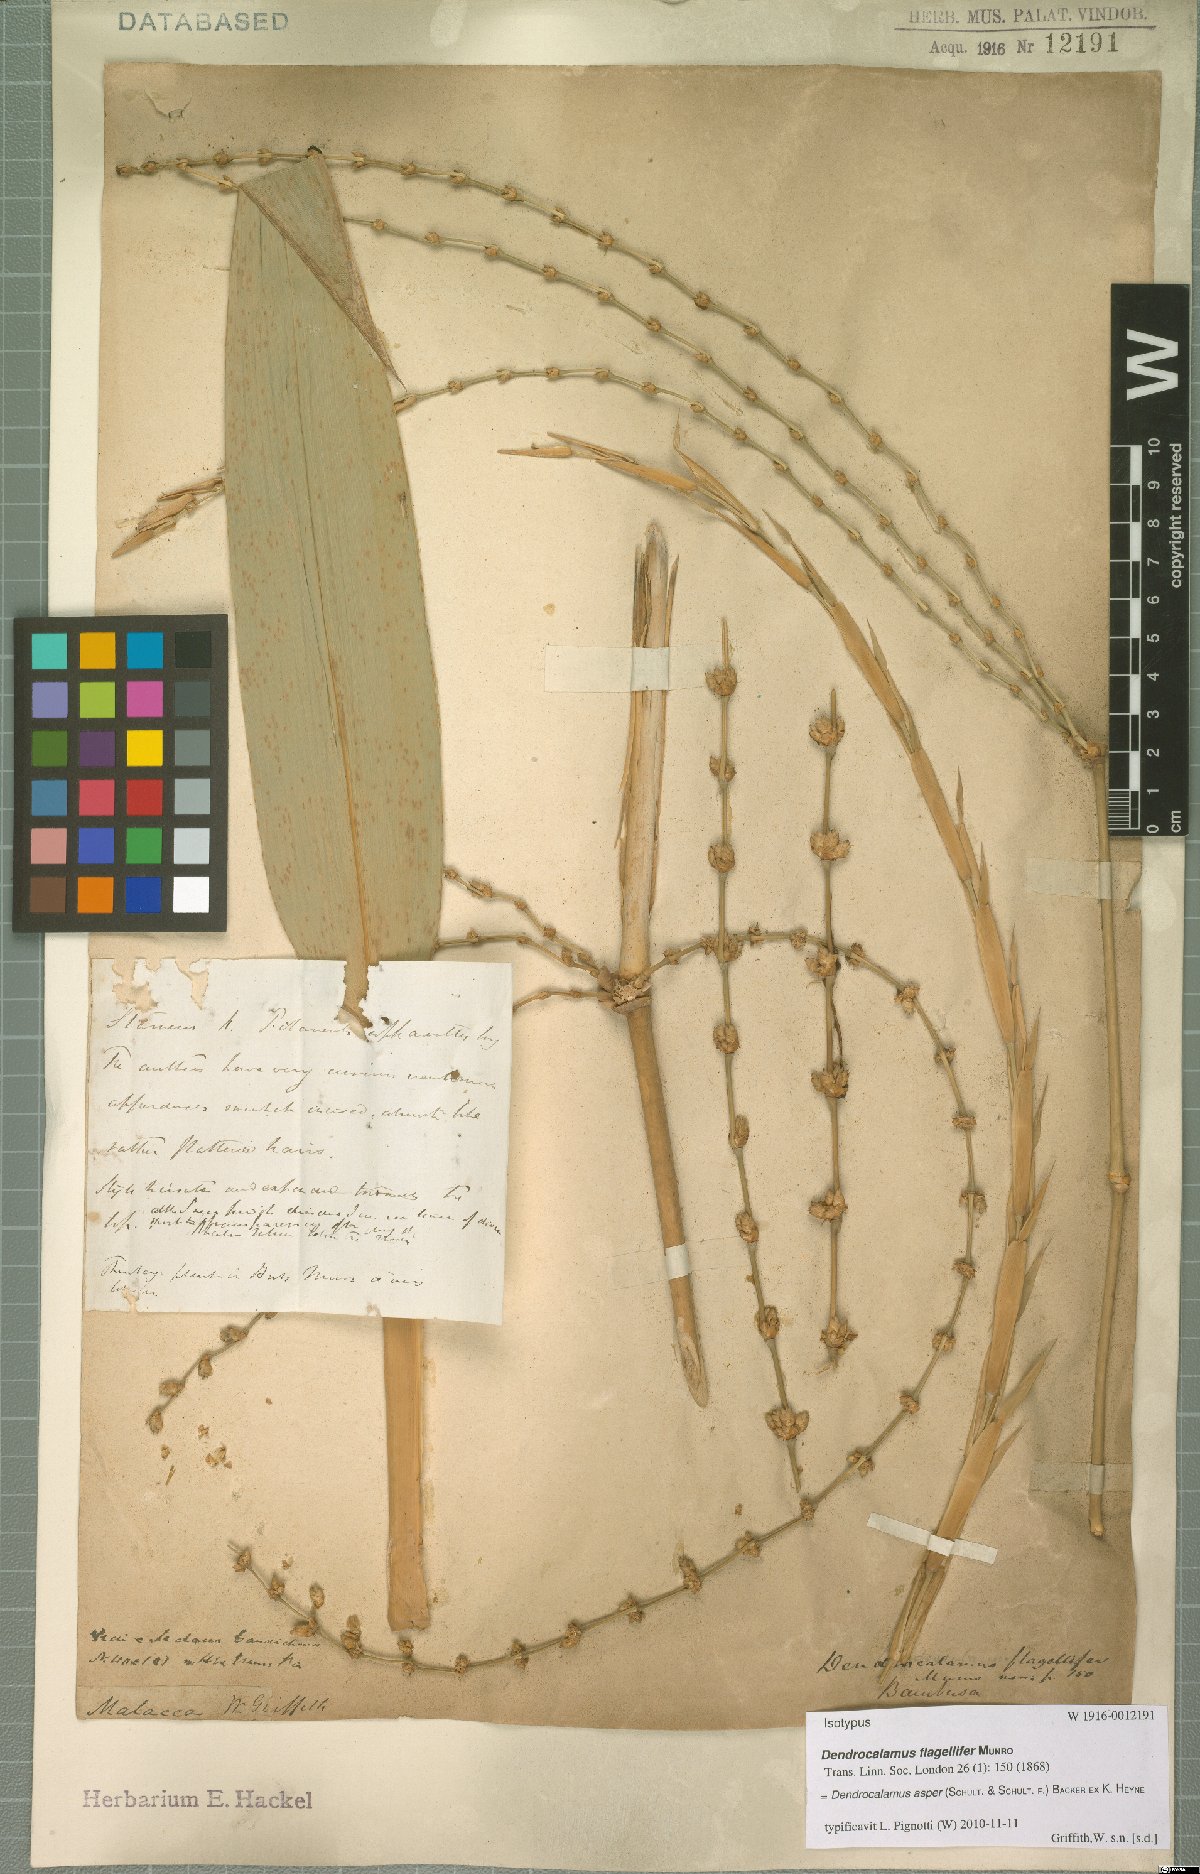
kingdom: Plantae
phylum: Tracheophyta
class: Liliopsida
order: Poales
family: Poaceae
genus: Dendrocalamus
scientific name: Dendrocalamus asper
